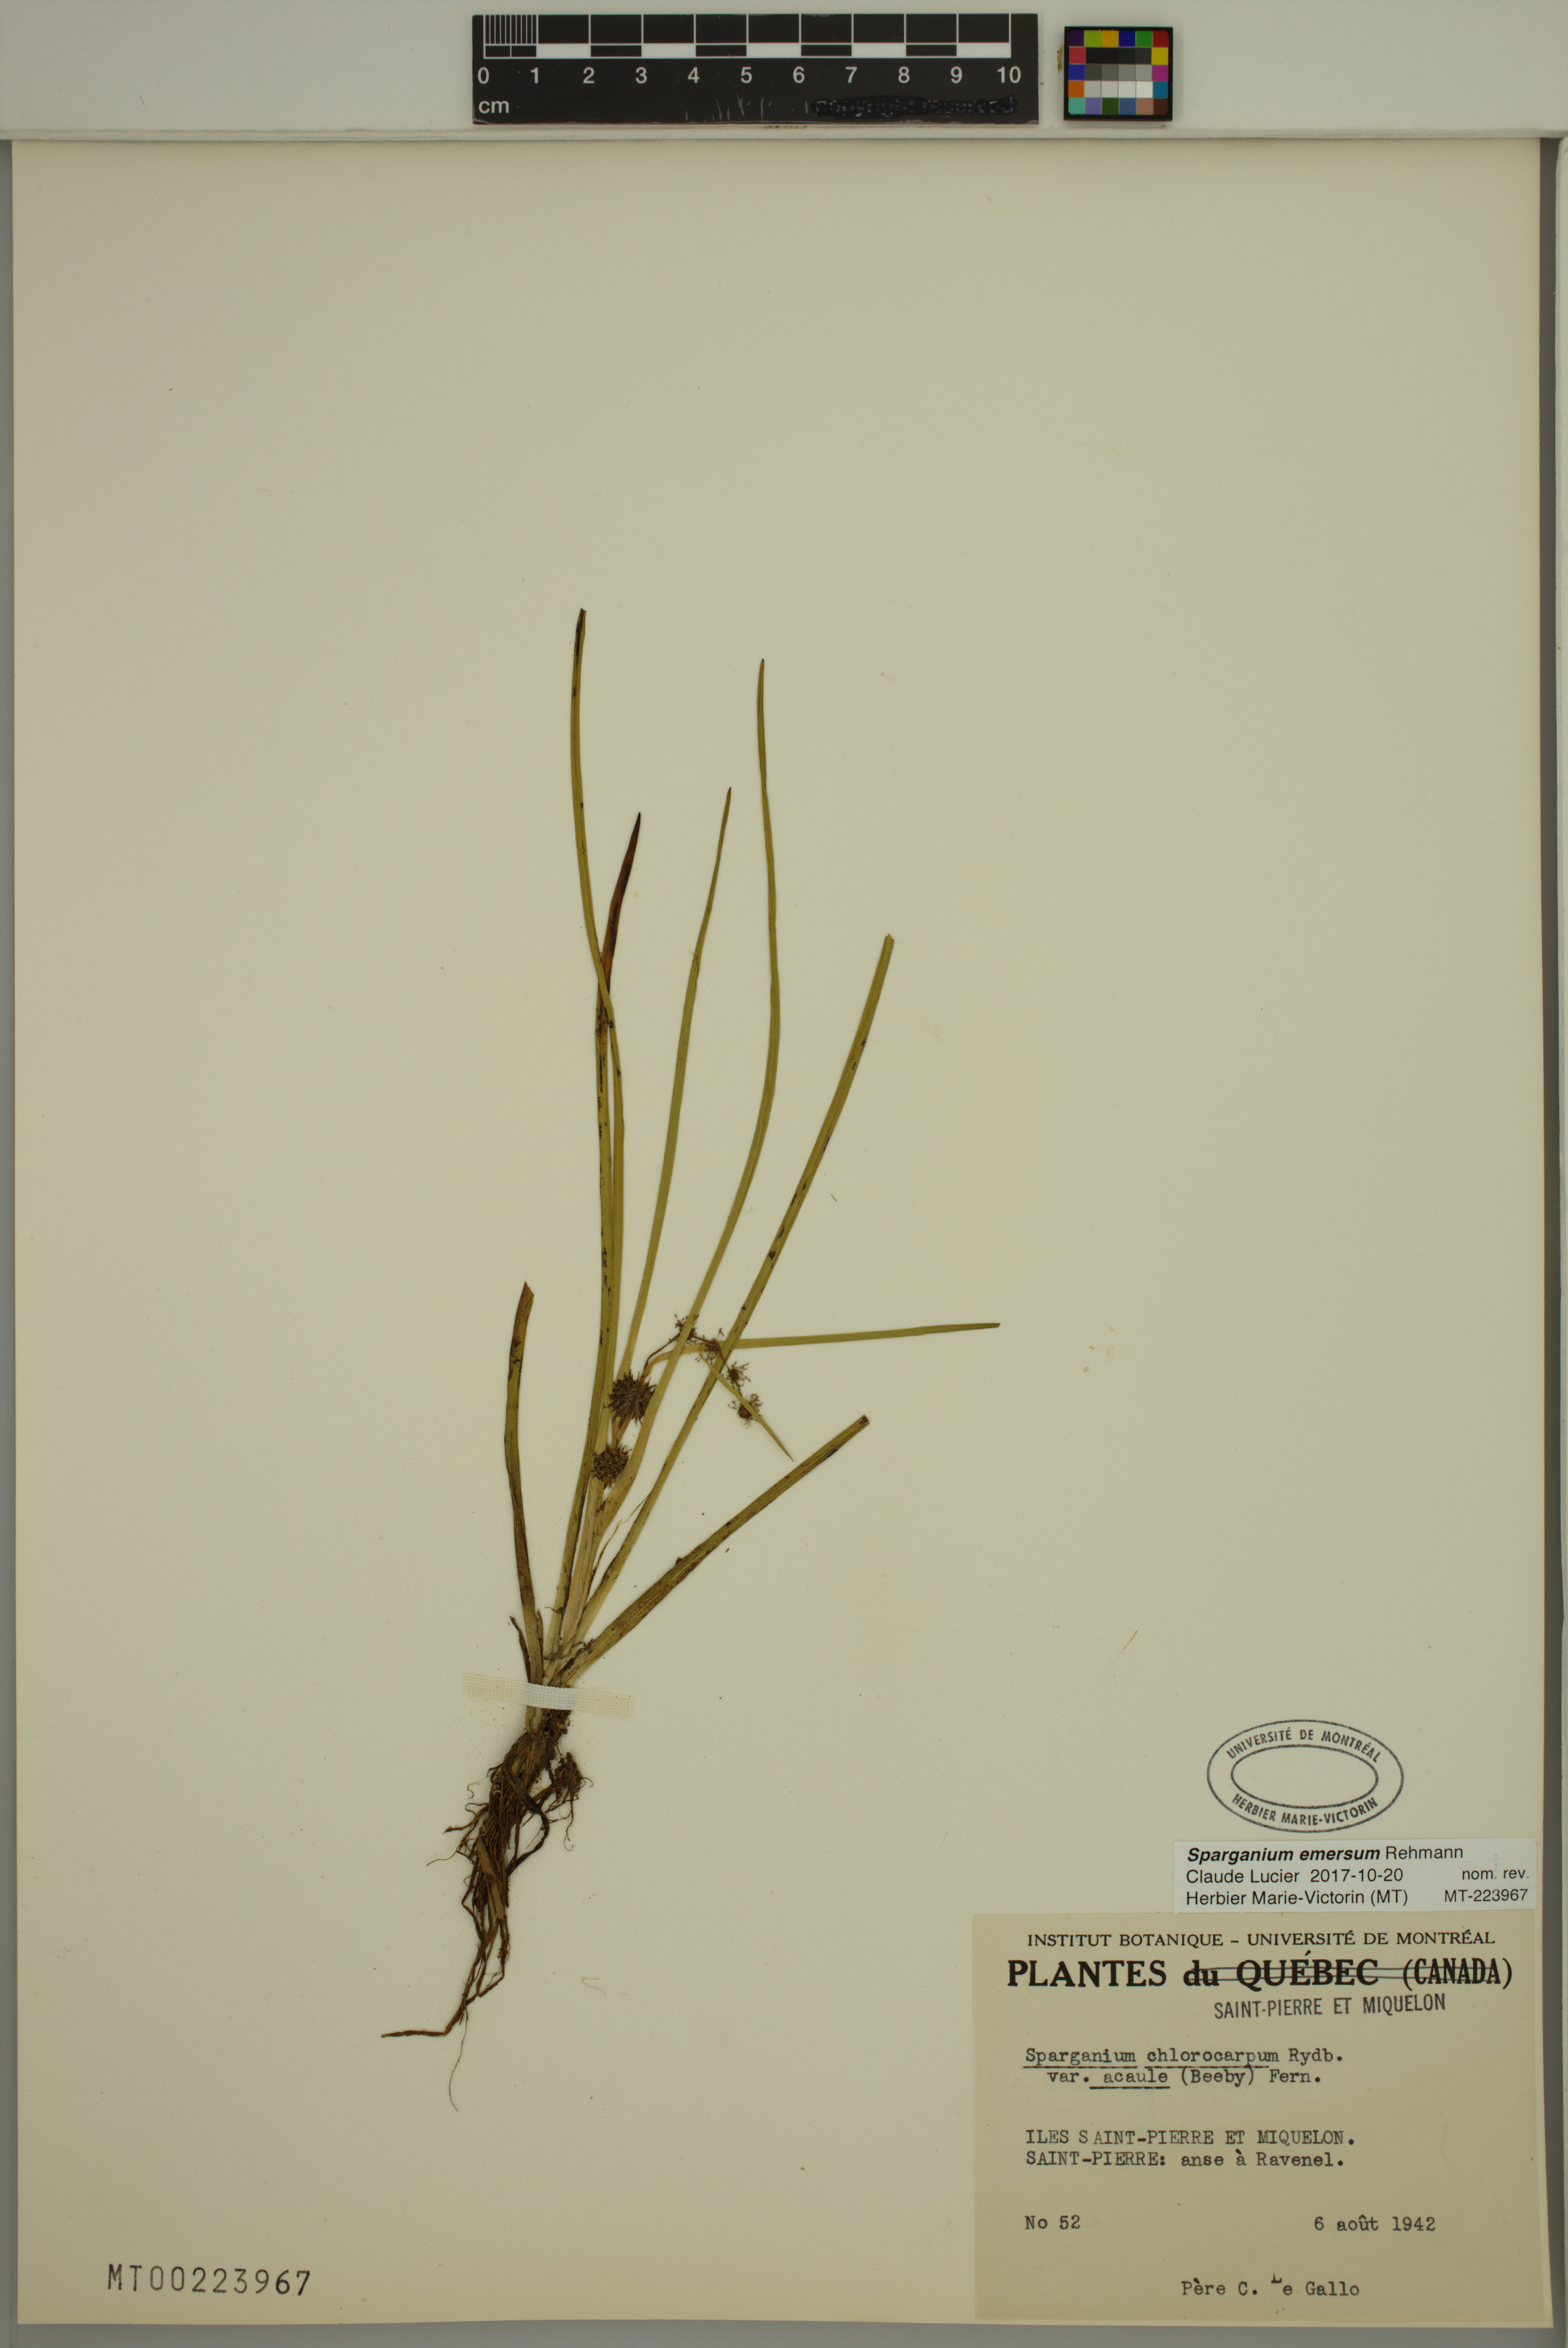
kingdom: Plantae
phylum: Tracheophyta
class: Liliopsida
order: Poales
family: Typhaceae
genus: Sparganium
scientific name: Sparganium emersum
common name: Unbranched bur-reed
